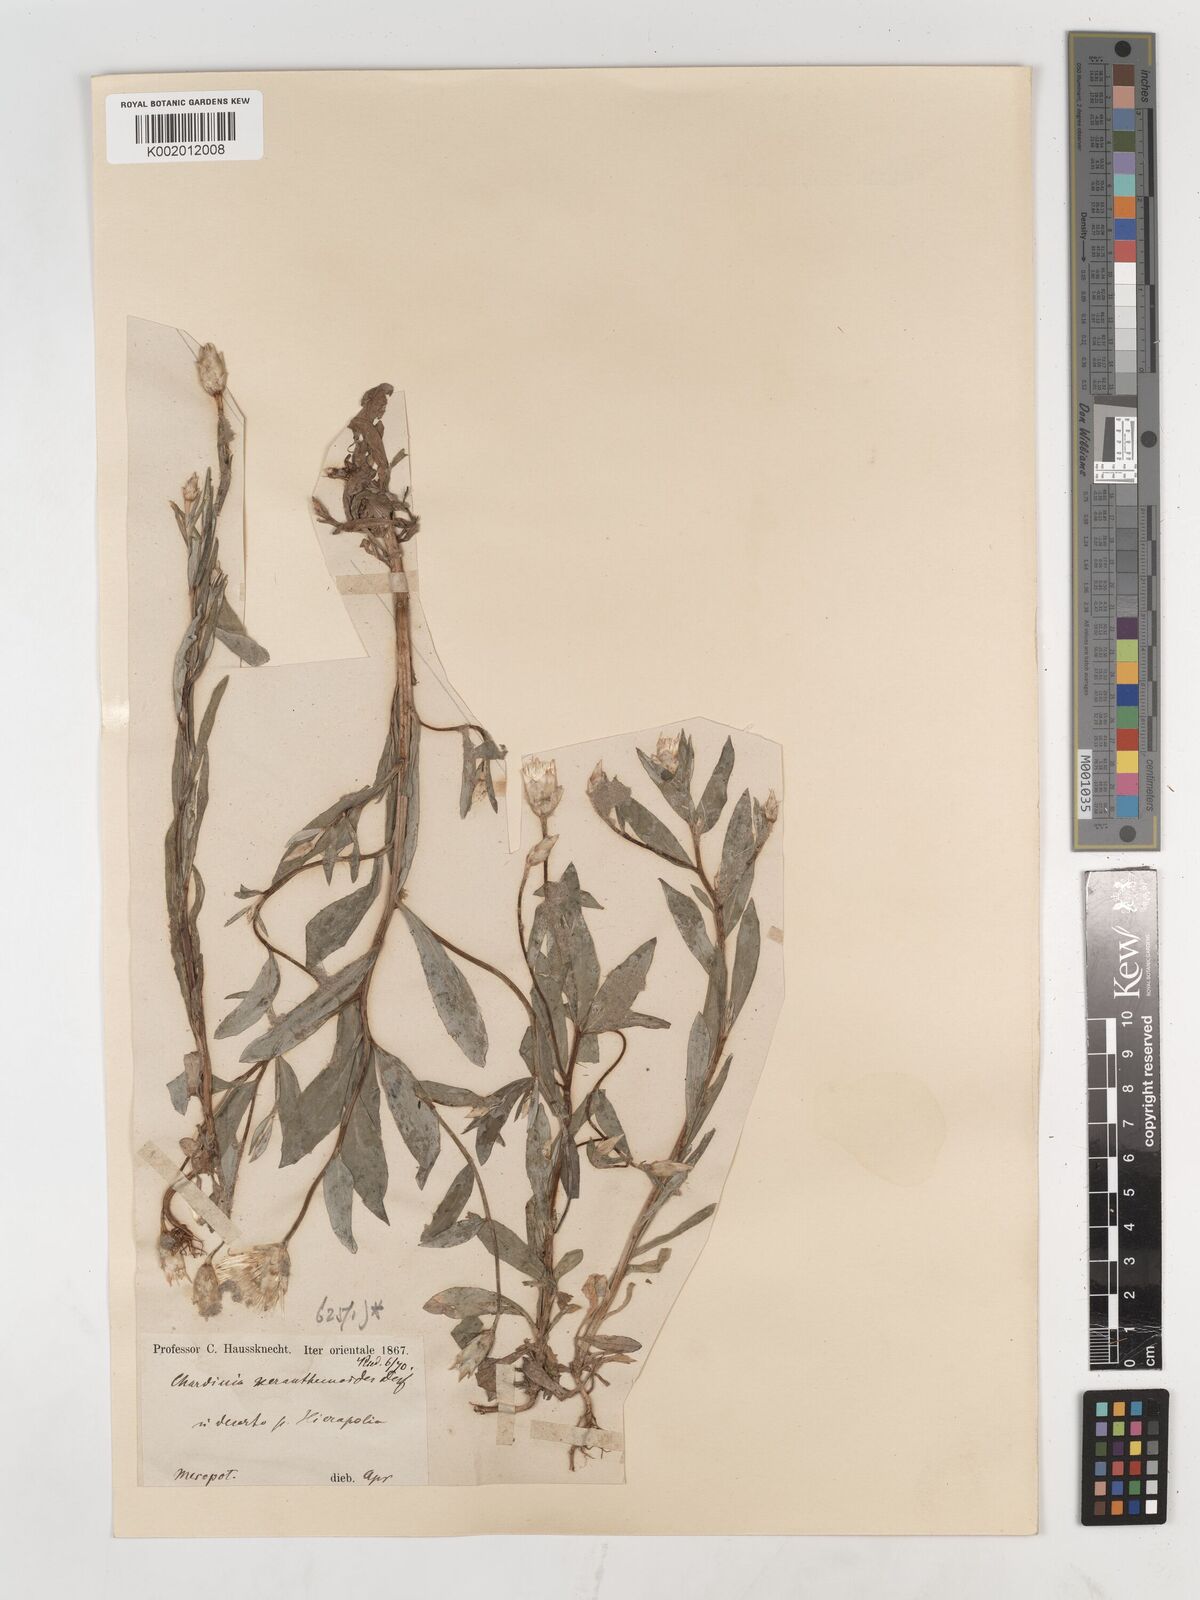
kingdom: Plantae
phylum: Tracheophyta
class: Magnoliopsida
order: Asterales
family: Asteraceae
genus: Chardinia
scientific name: Chardinia orientalis
